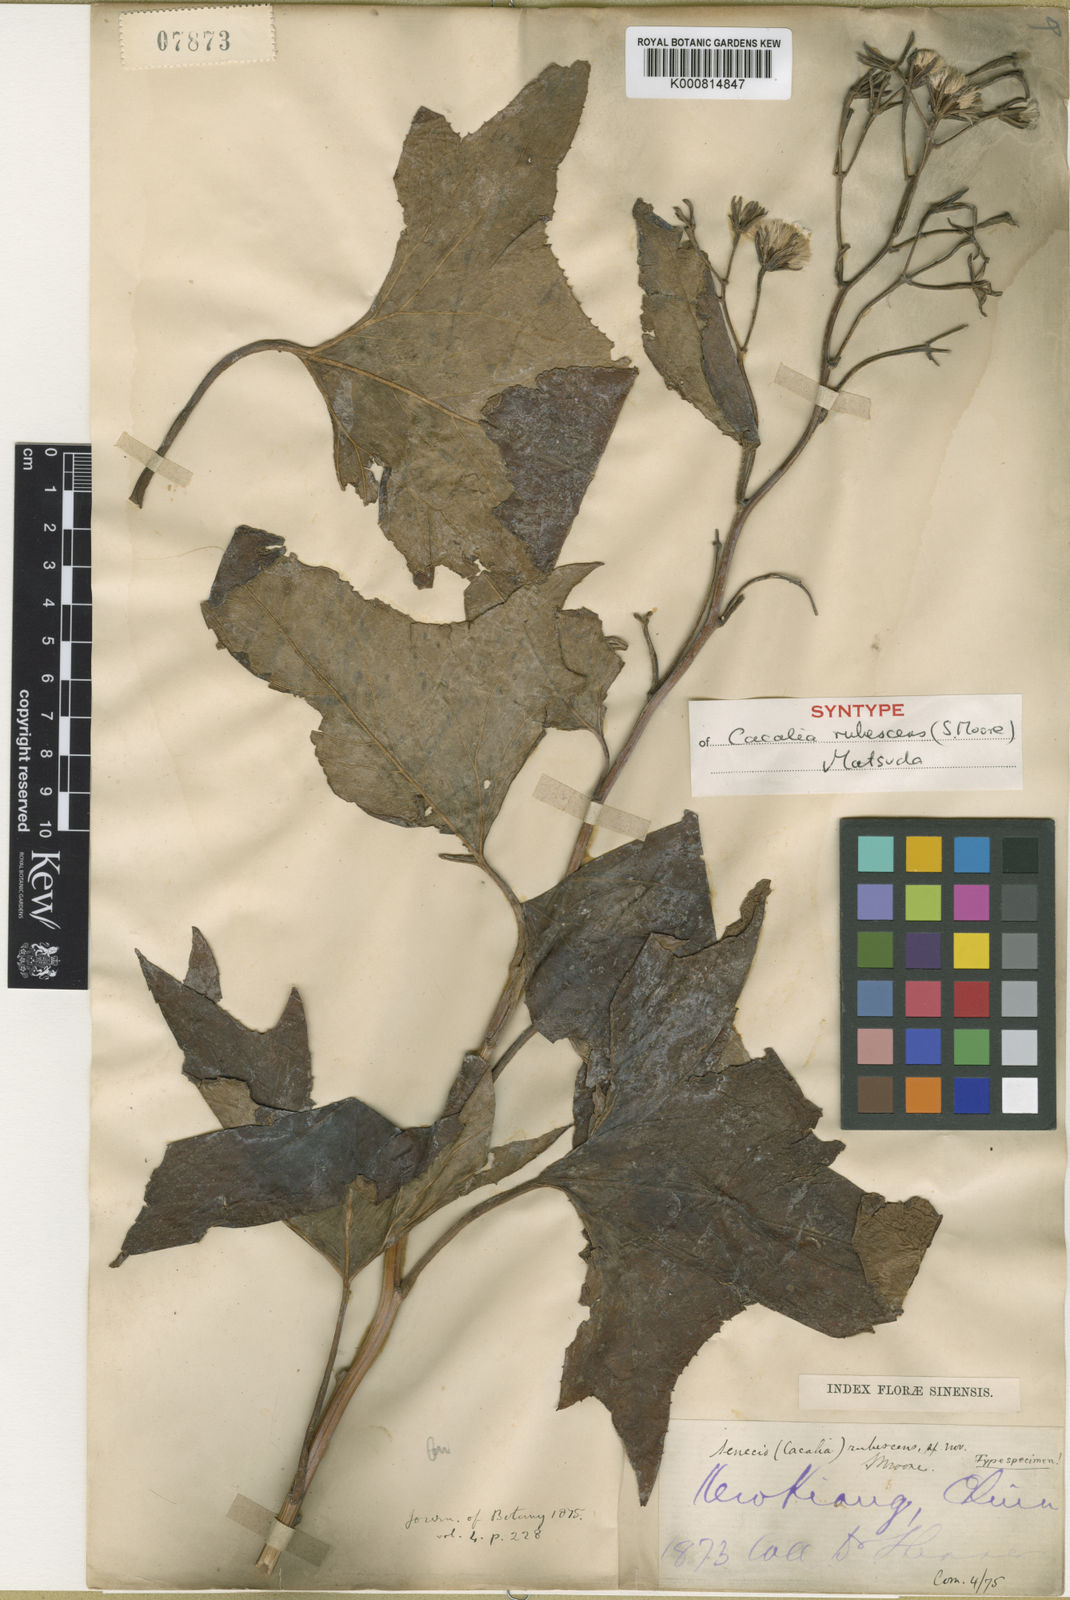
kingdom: Plantae
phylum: Tracheophyta
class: Magnoliopsida
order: Asterales
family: Asteraceae
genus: Parasenecio
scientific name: Parasenecio rubescens
